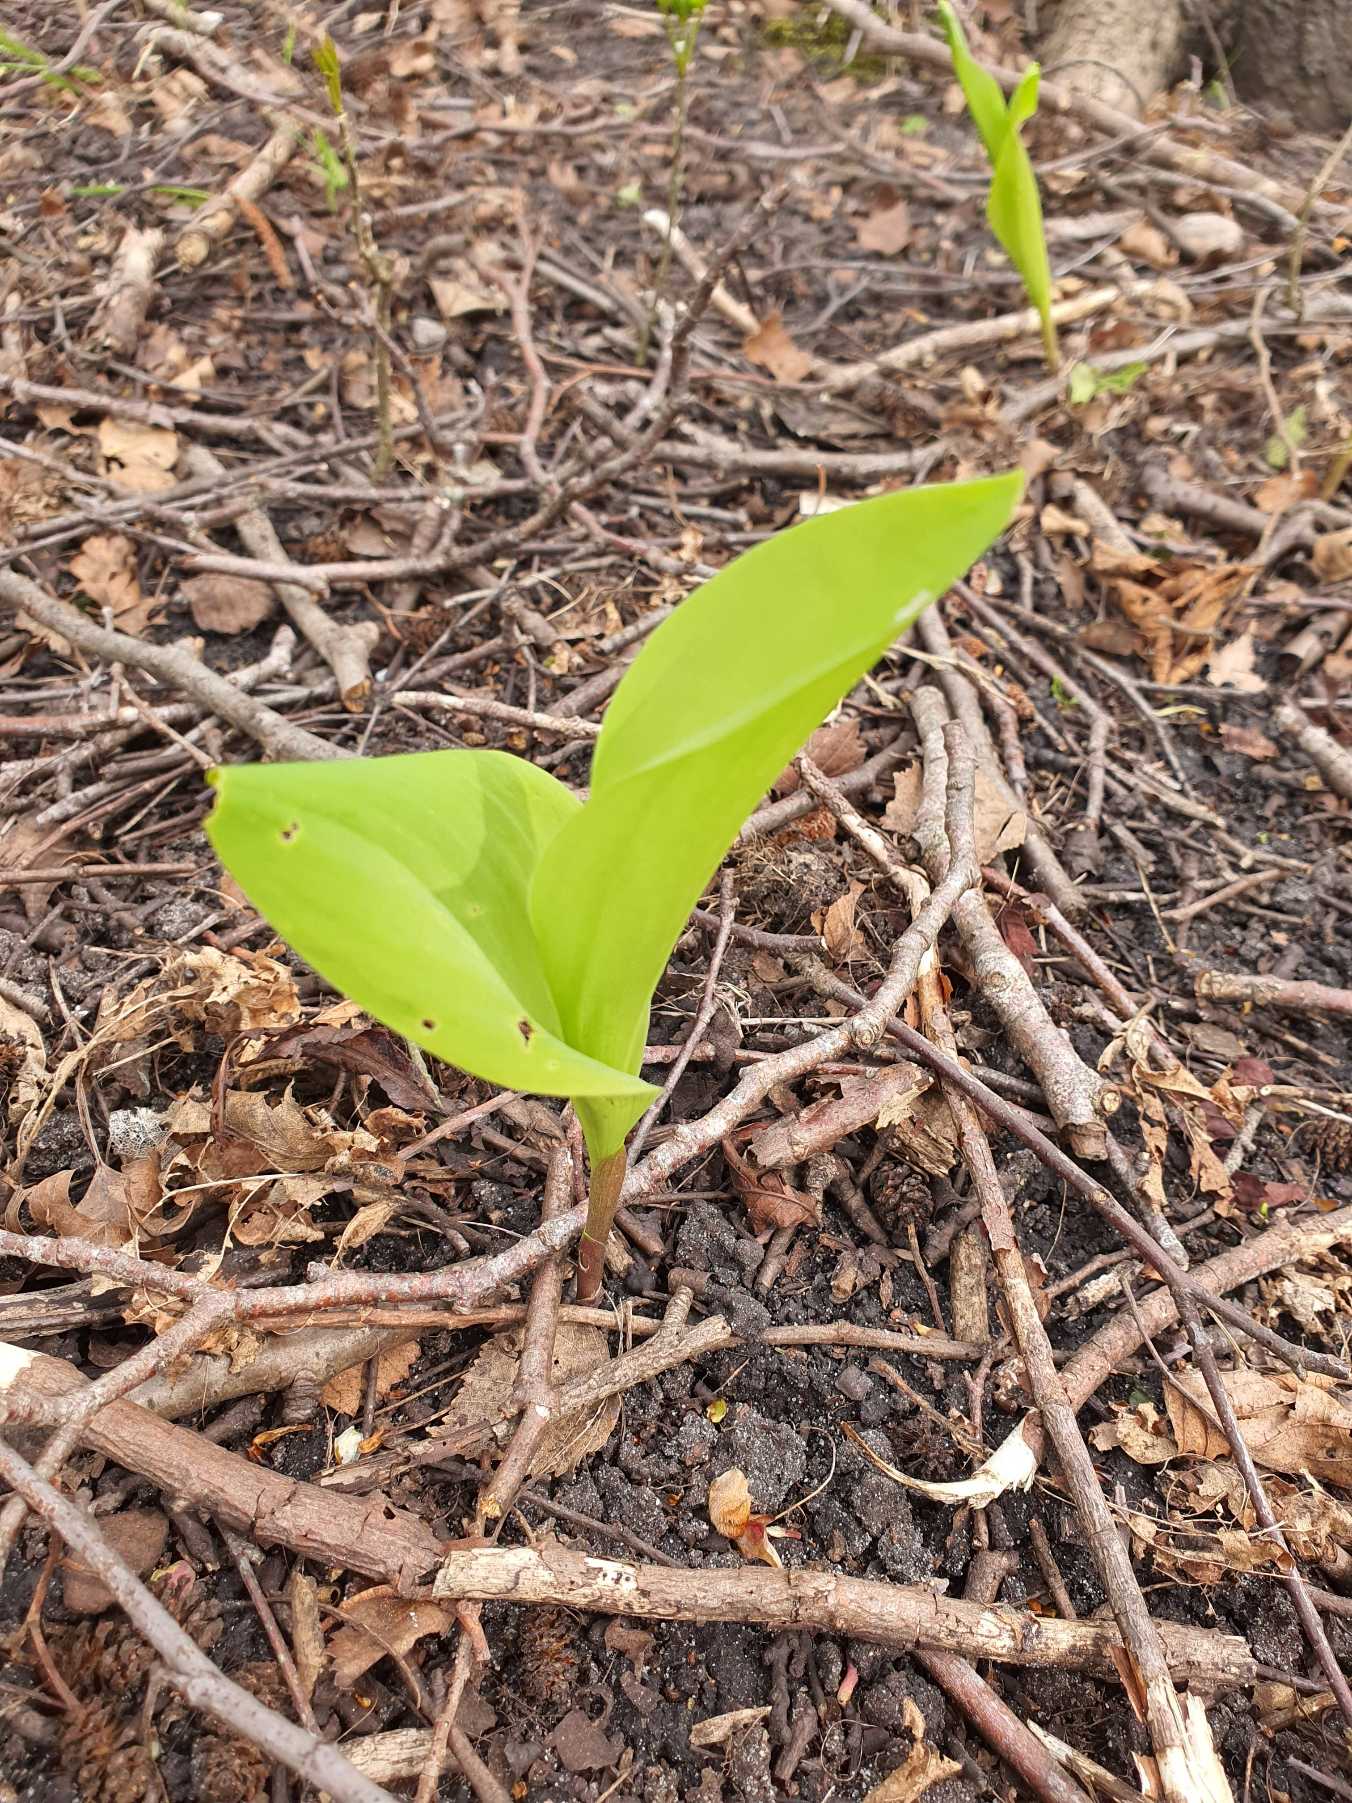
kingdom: Plantae
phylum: Tracheophyta
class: Liliopsida
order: Asparagales
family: Asparagaceae
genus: Convallaria
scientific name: Convallaria majalis
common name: Liljekonval
